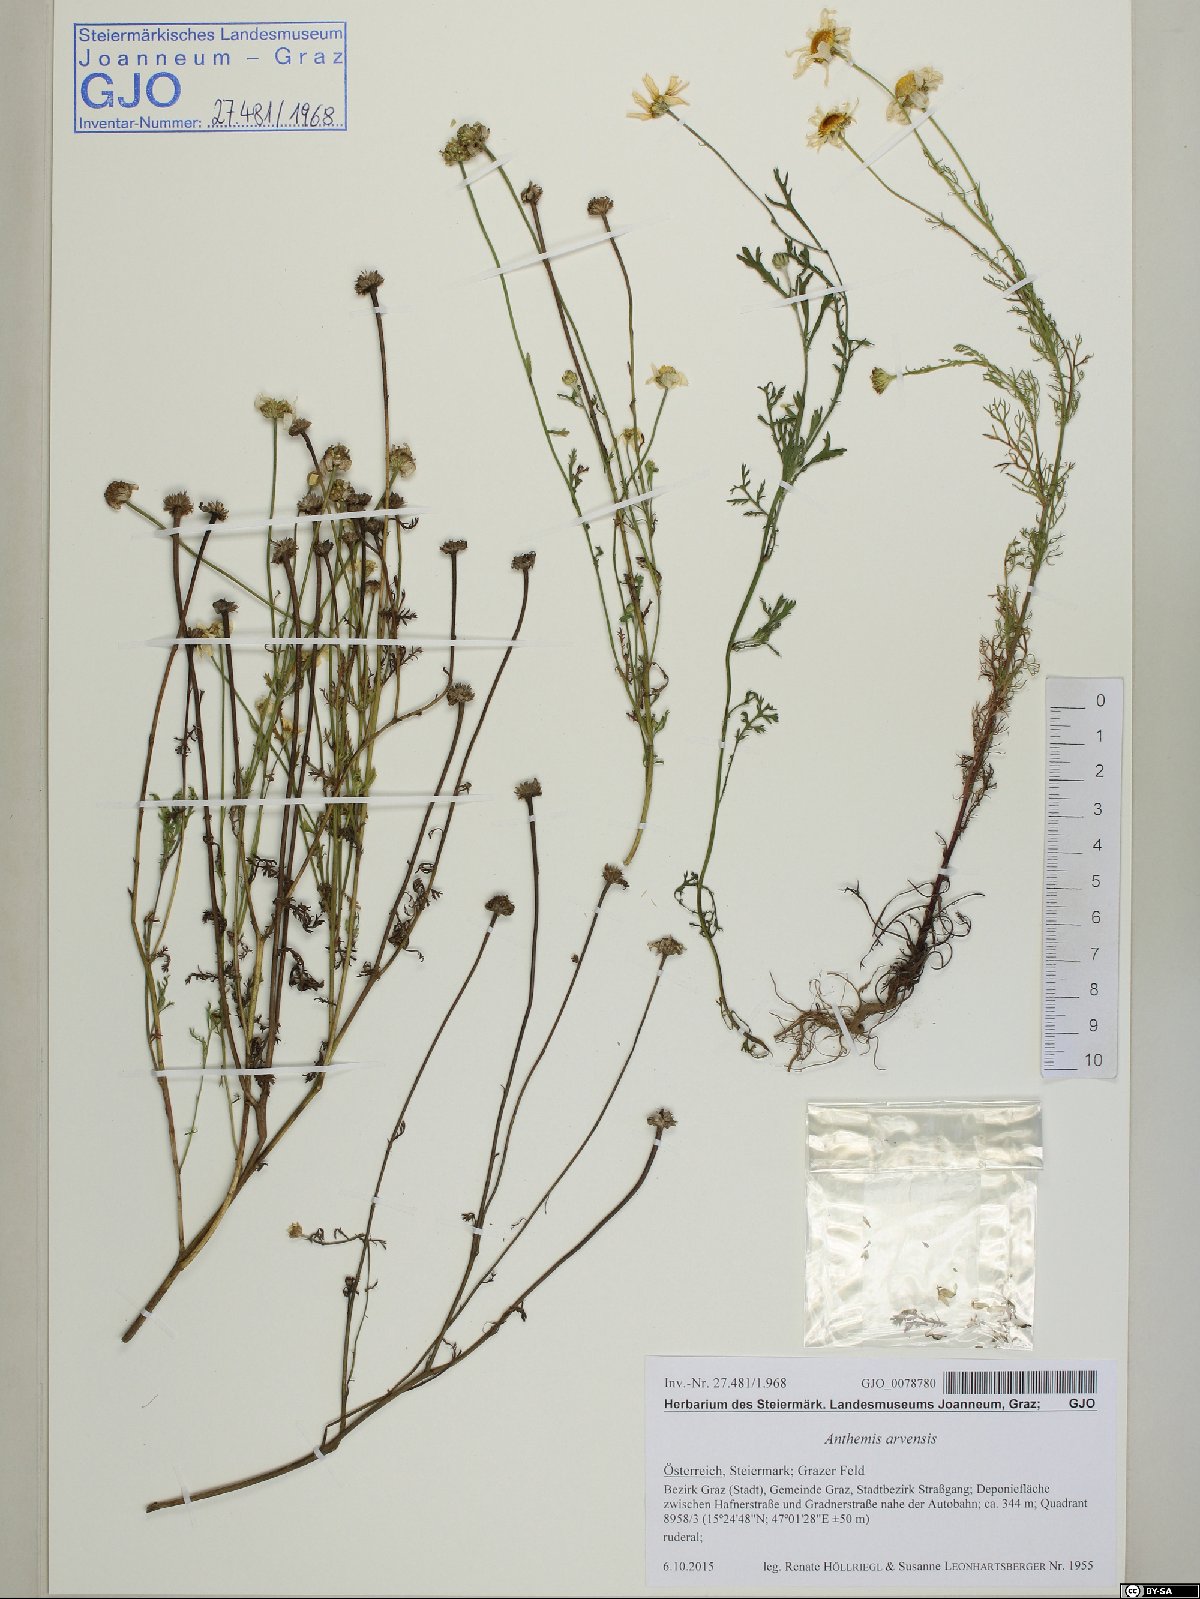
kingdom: Plantae
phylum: Tracheophyta
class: Magnoliopsida
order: Asterales
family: Asteraceae
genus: Anthemis
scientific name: Anthemis arvensis
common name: Corn chamomile
